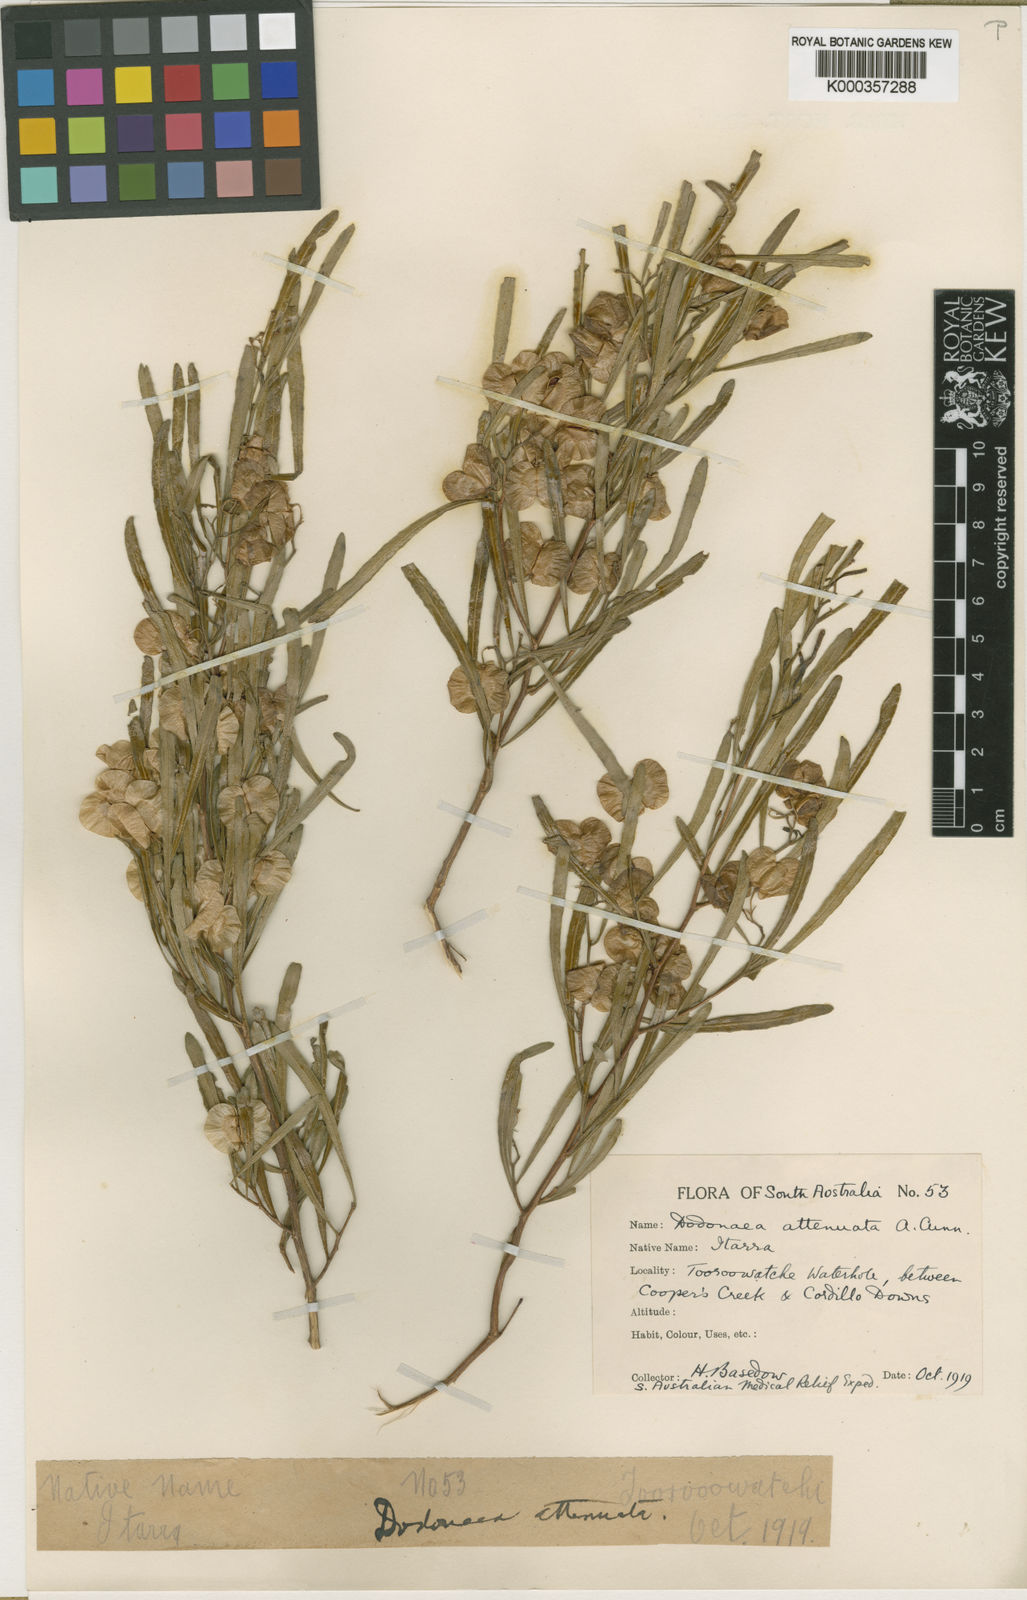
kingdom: Plantae
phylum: Tracheophyta
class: Magnoliopsida
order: Sapindales
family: Sapindaceae
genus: Dodonaea
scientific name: Dodonaea viscosa
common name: Hopbush
